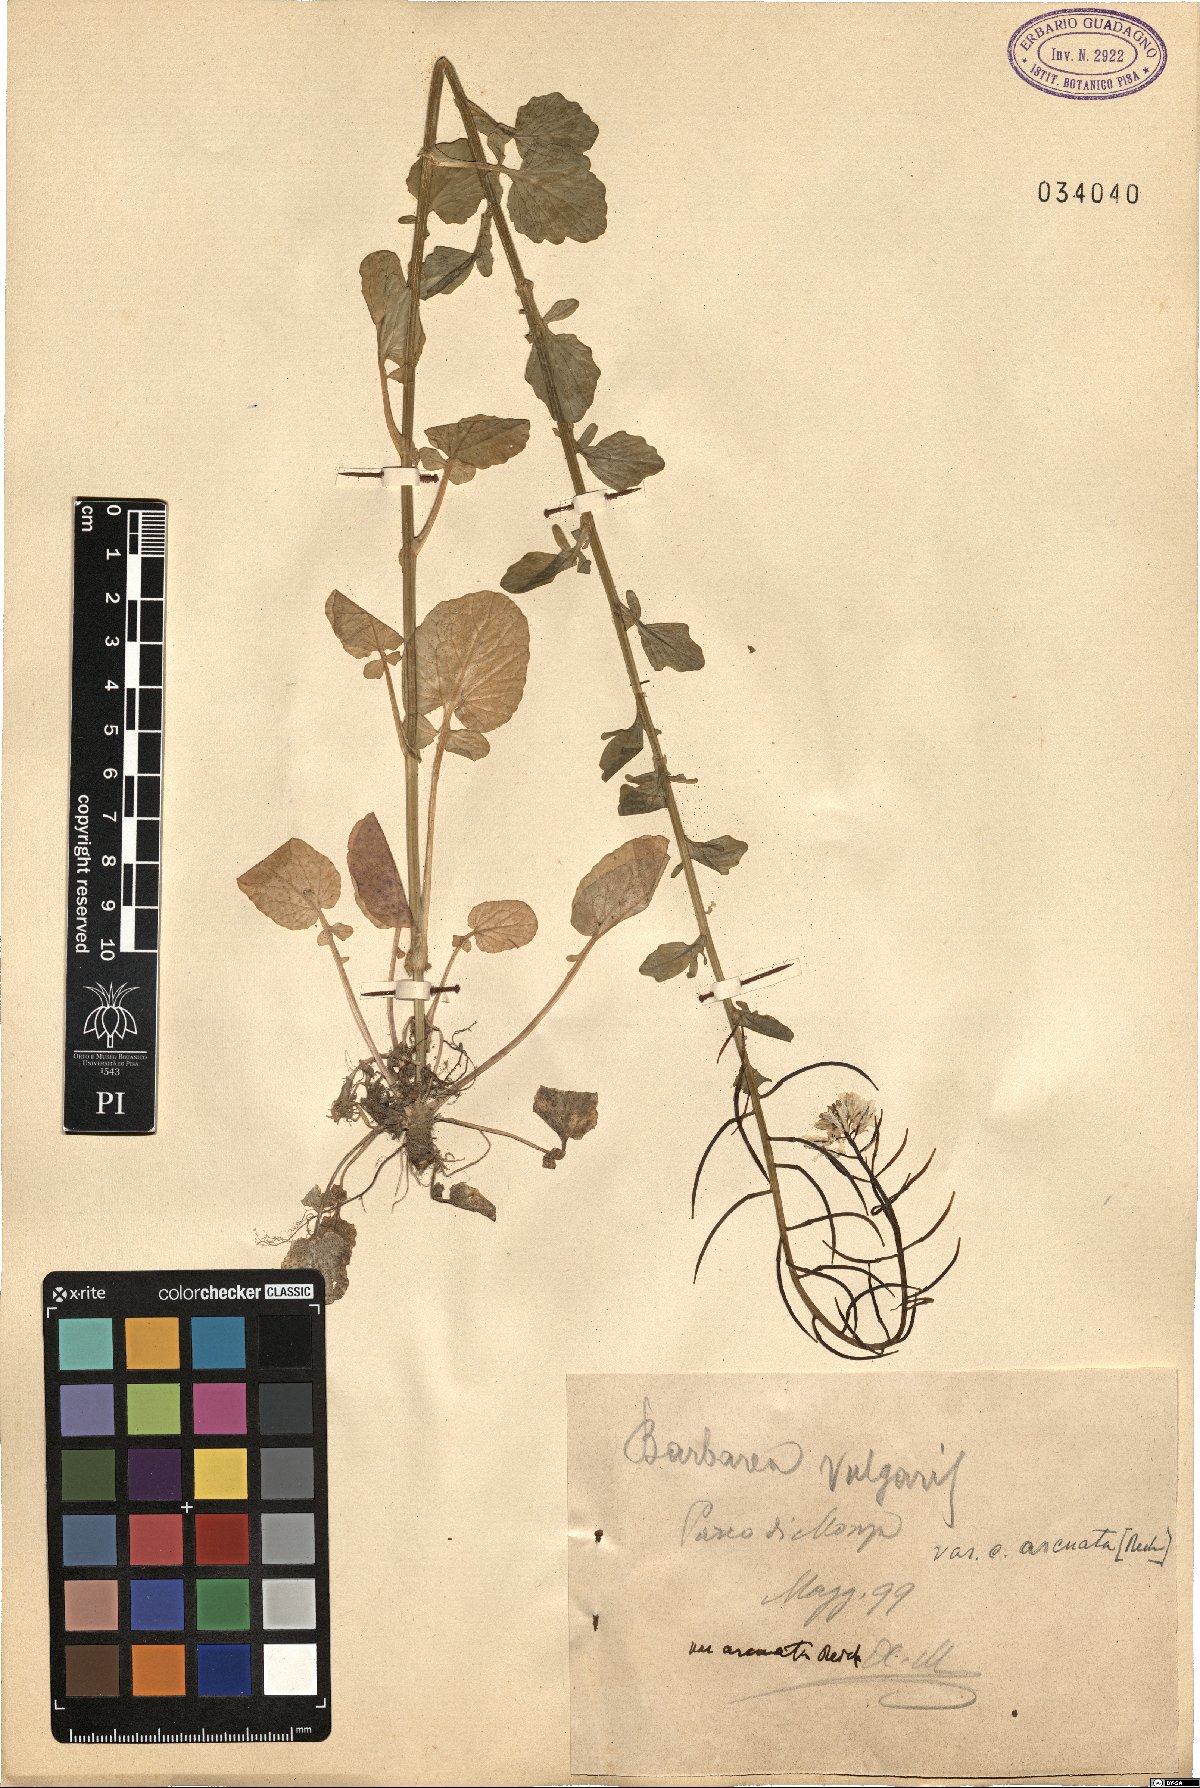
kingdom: Plantae
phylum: Tracheophyta
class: Magnoliopsida
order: Brassicales
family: Brassicaceae
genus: Barbarea
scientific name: Barbarea vulgaris
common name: Cressy-greens
